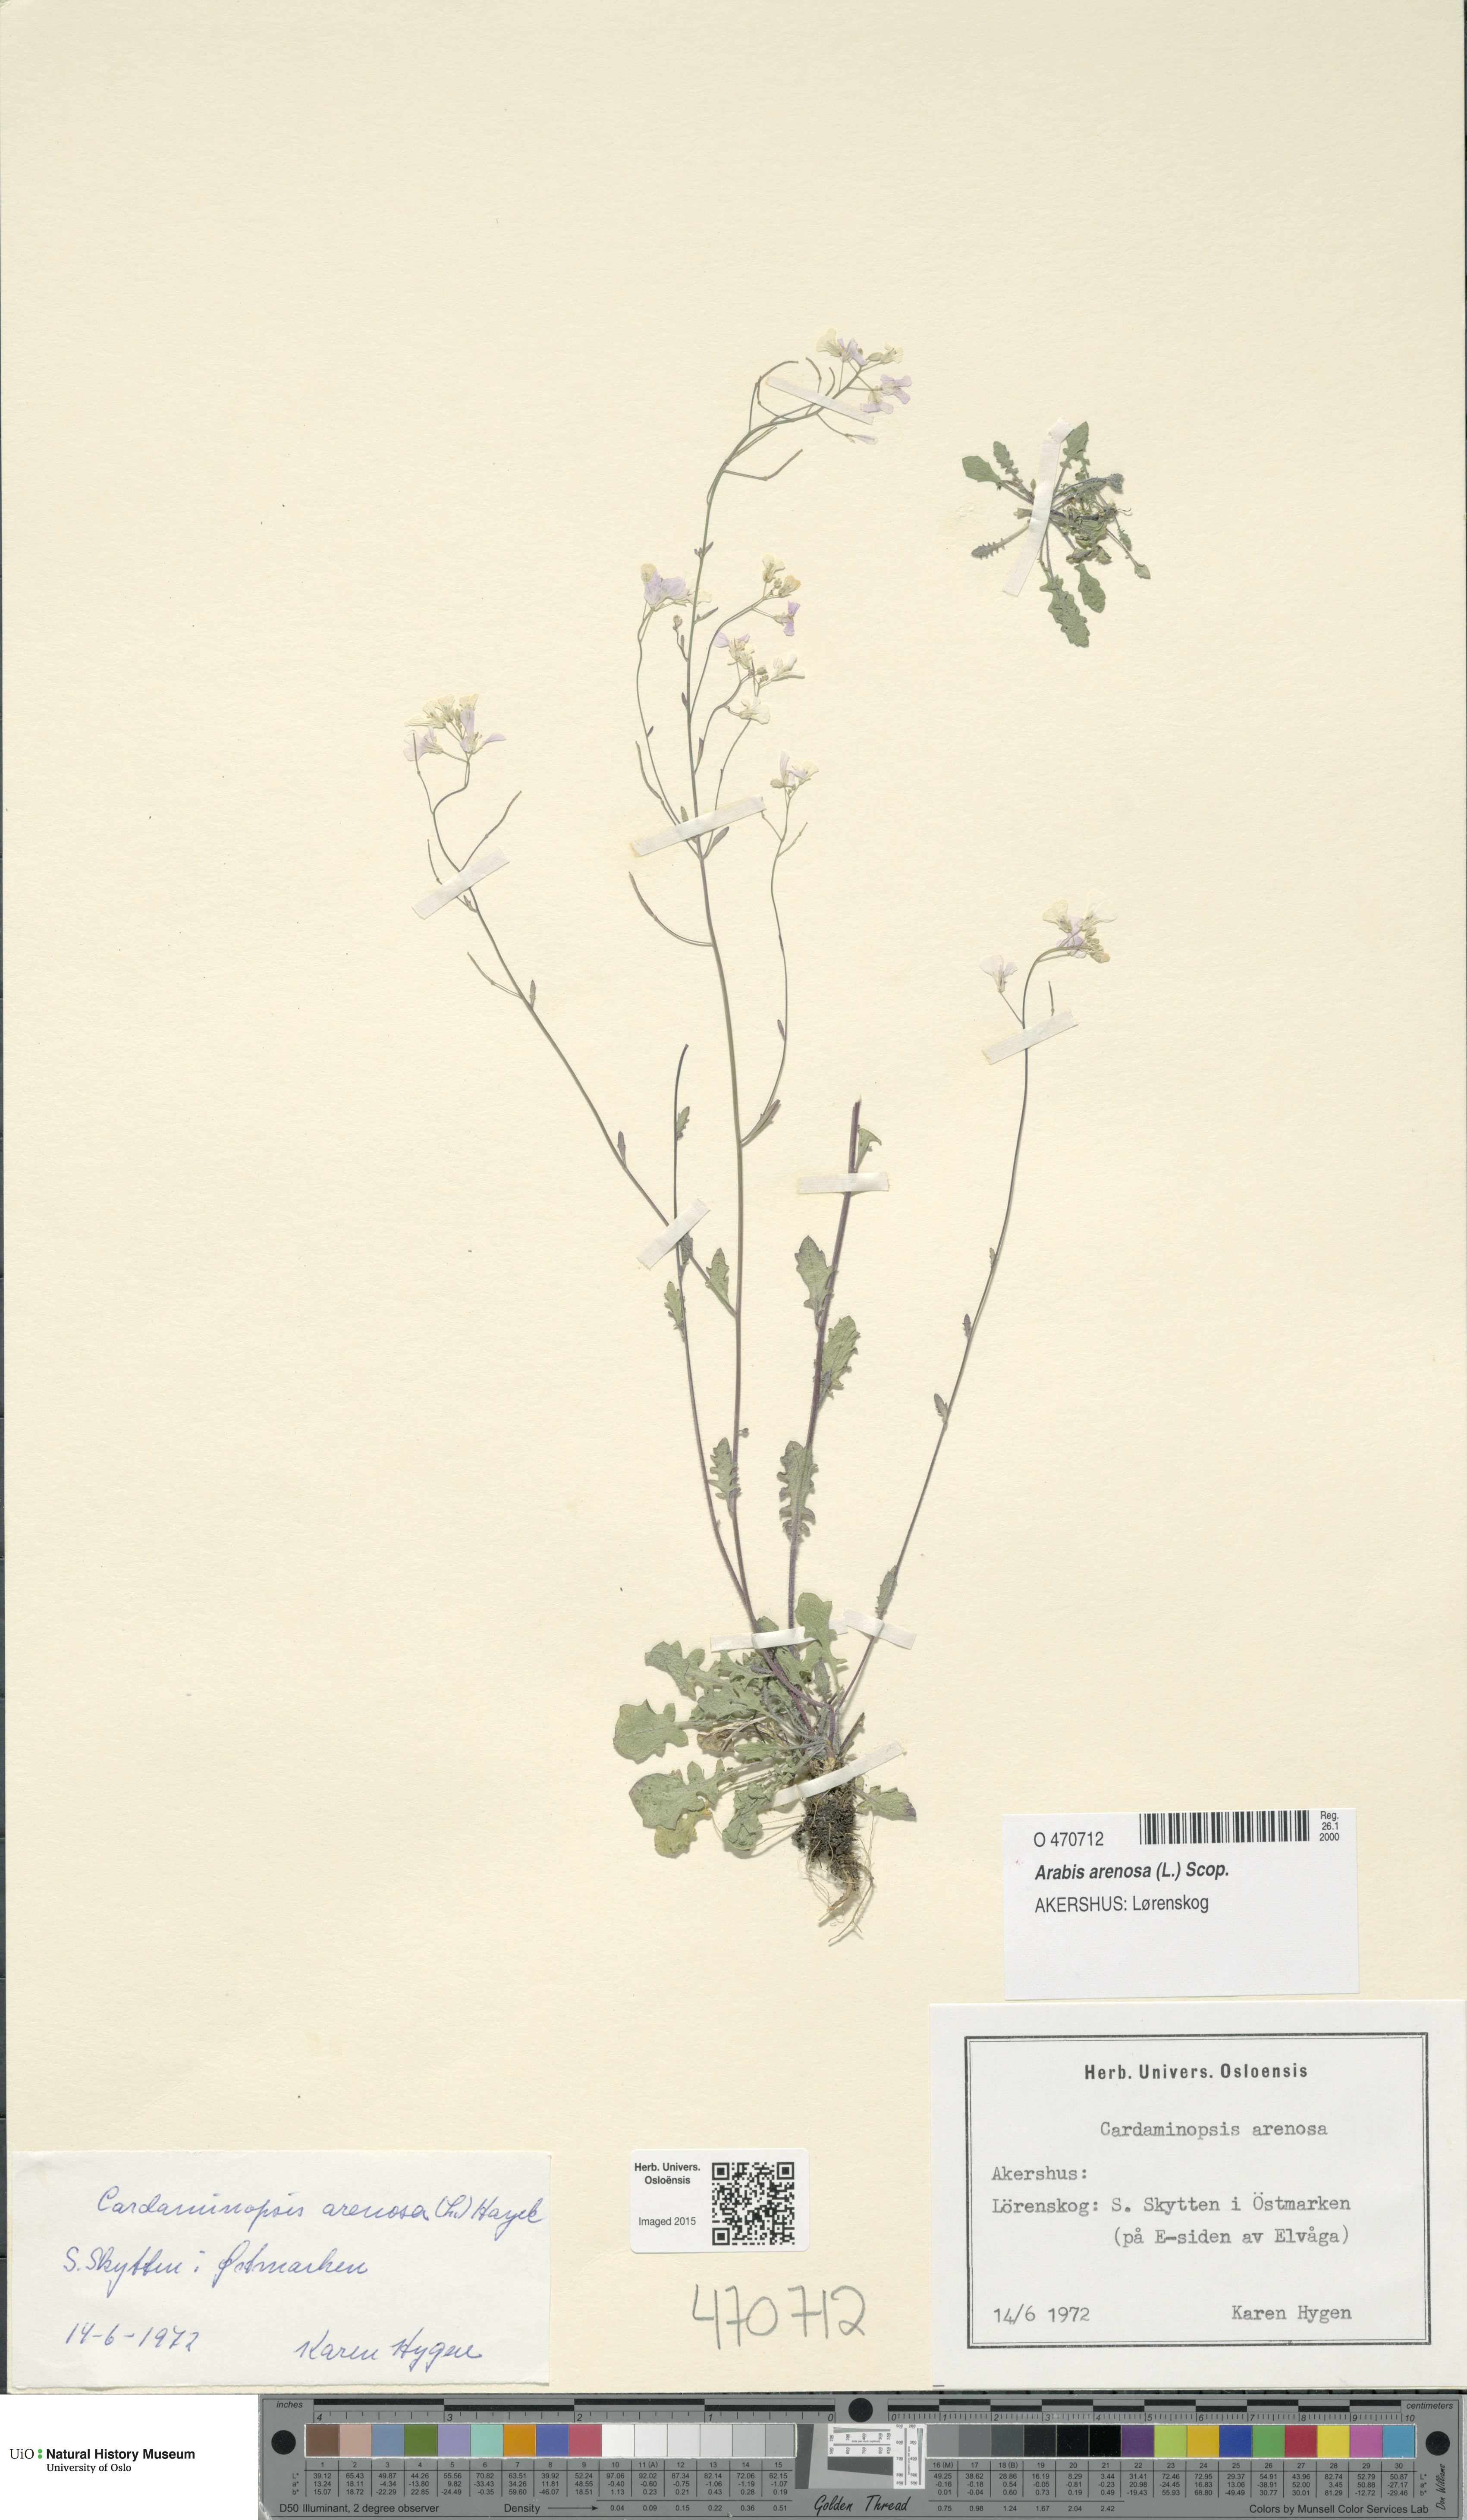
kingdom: Plantae
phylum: Tracheophyta
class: Magnoliopsida
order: Brassicales
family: Brassicaceae
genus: Arabidopsis
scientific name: Arabidopsis arenosa
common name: Sand rock-cress
